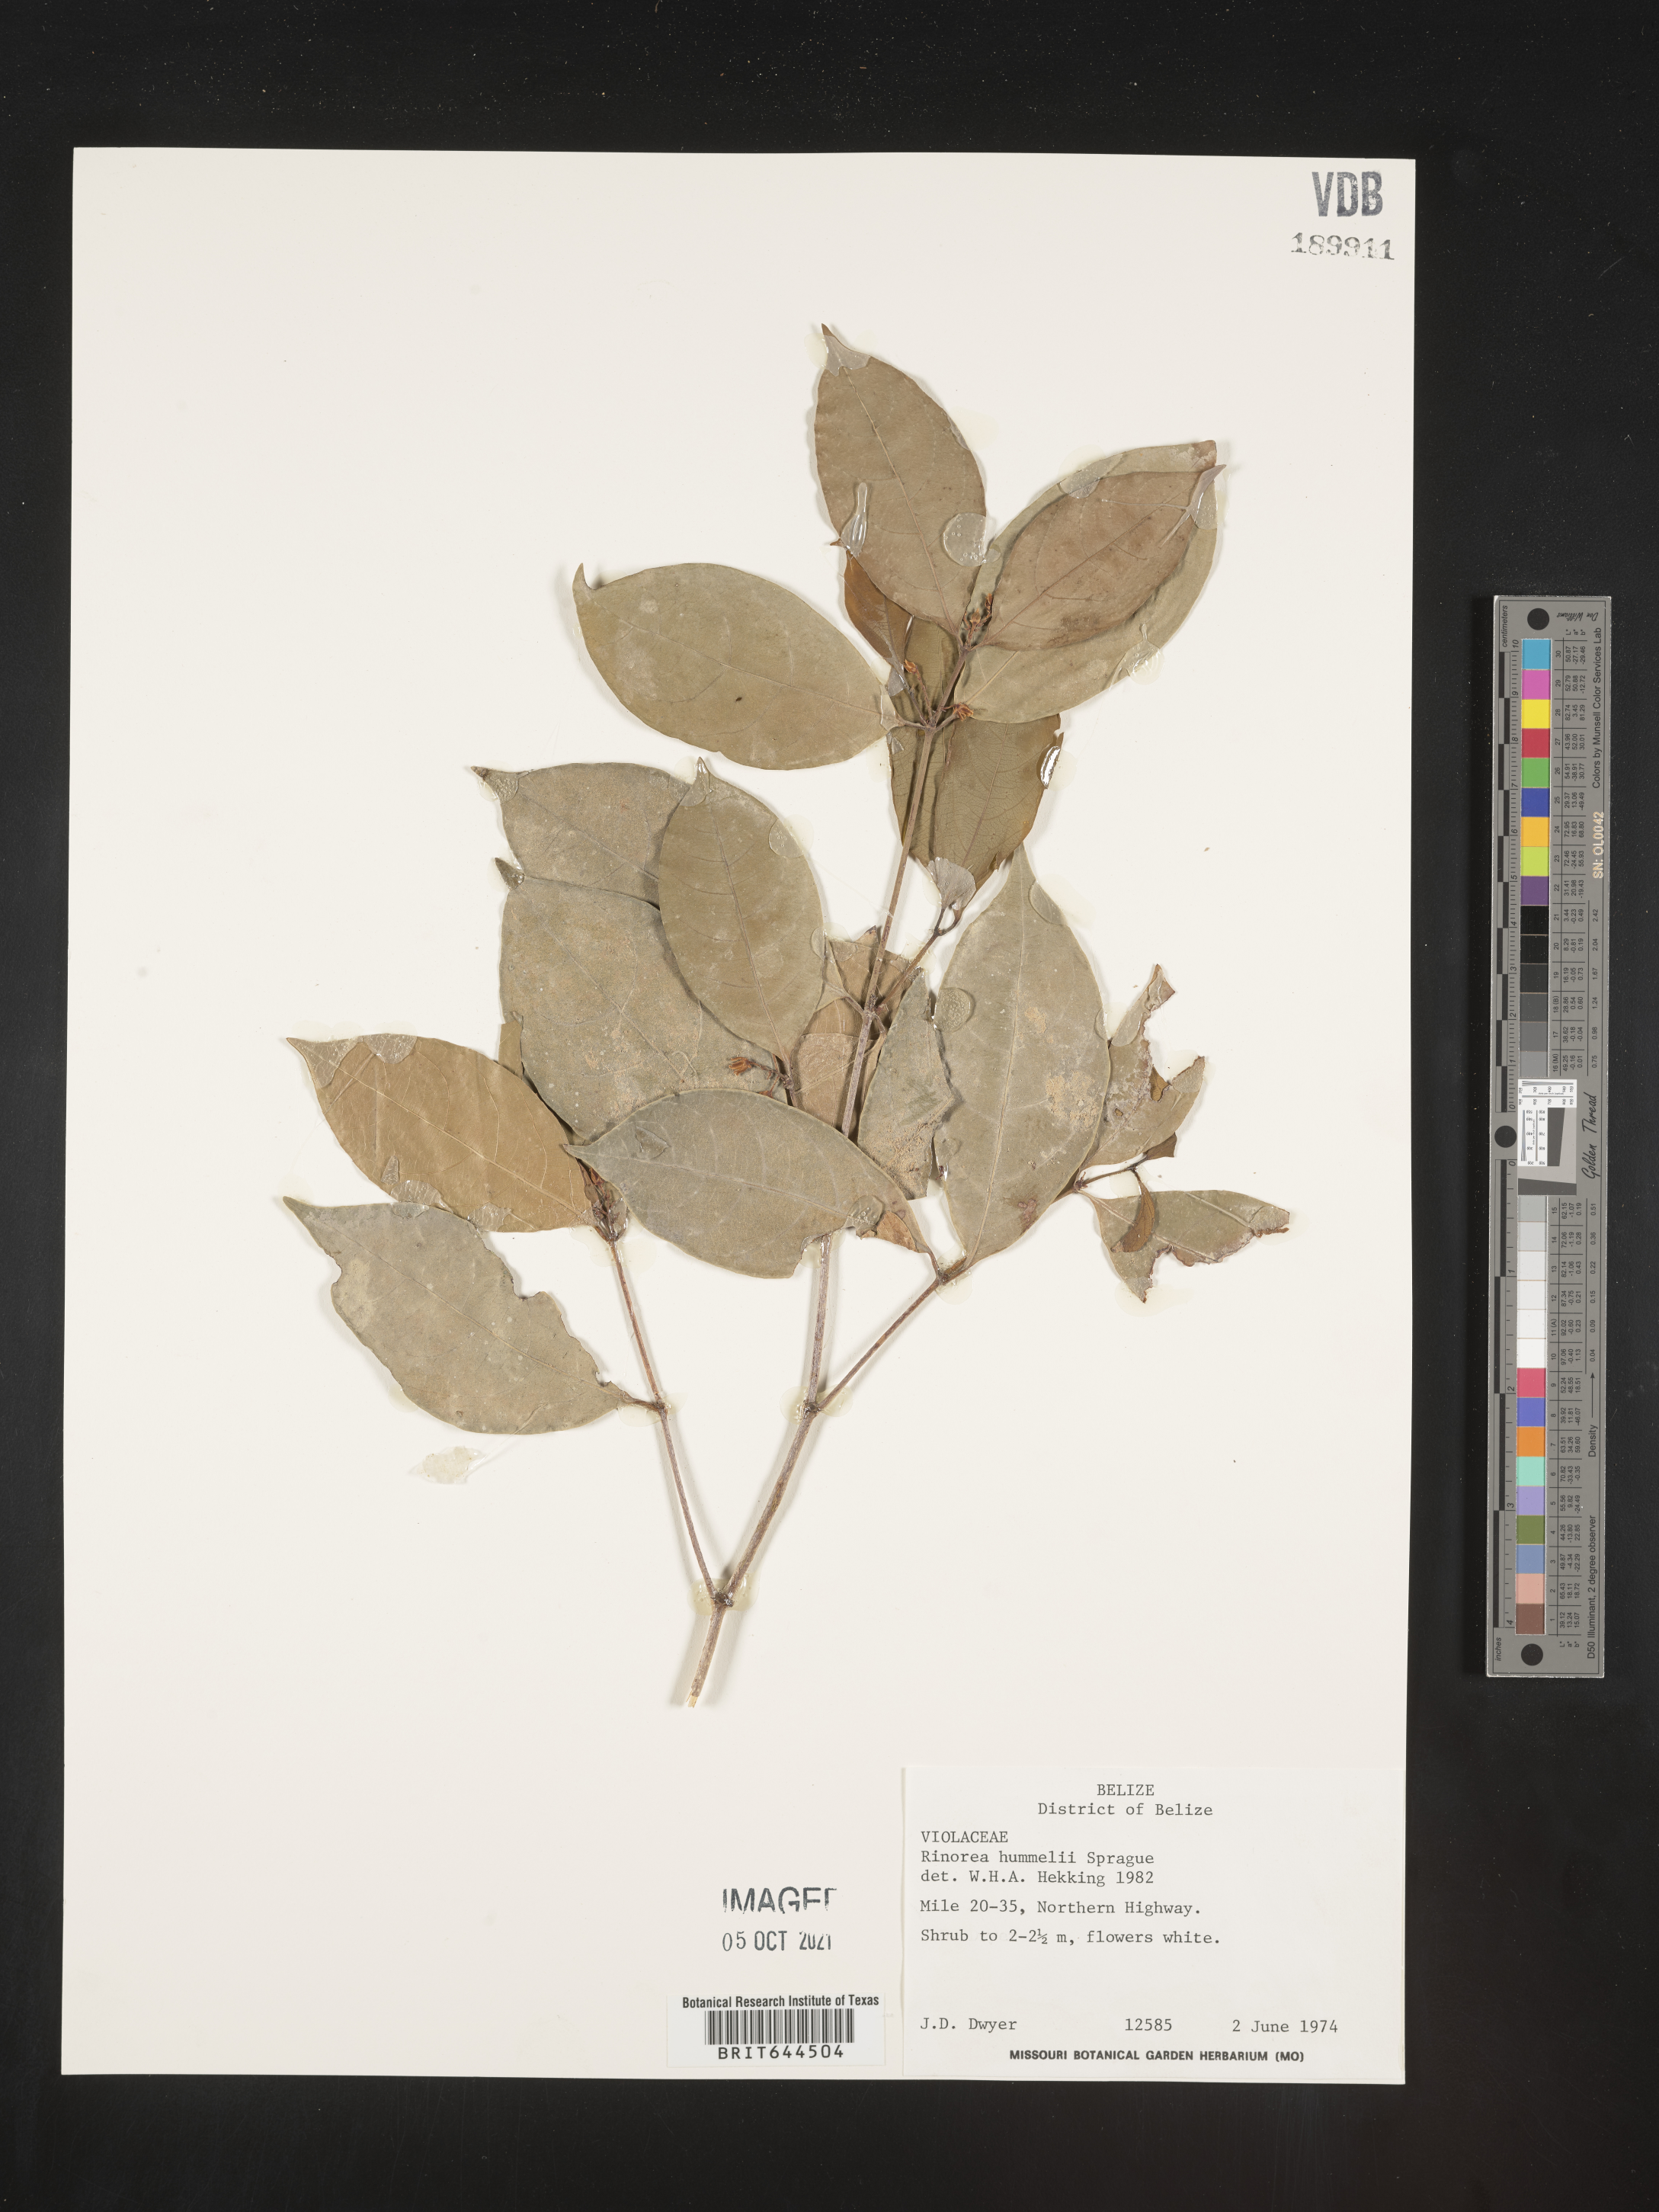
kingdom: Plantae
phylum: Tracheophyta
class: Magnoliopsida
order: Malpighiales
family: Violaceae
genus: Rinorea
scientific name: Rinorea
